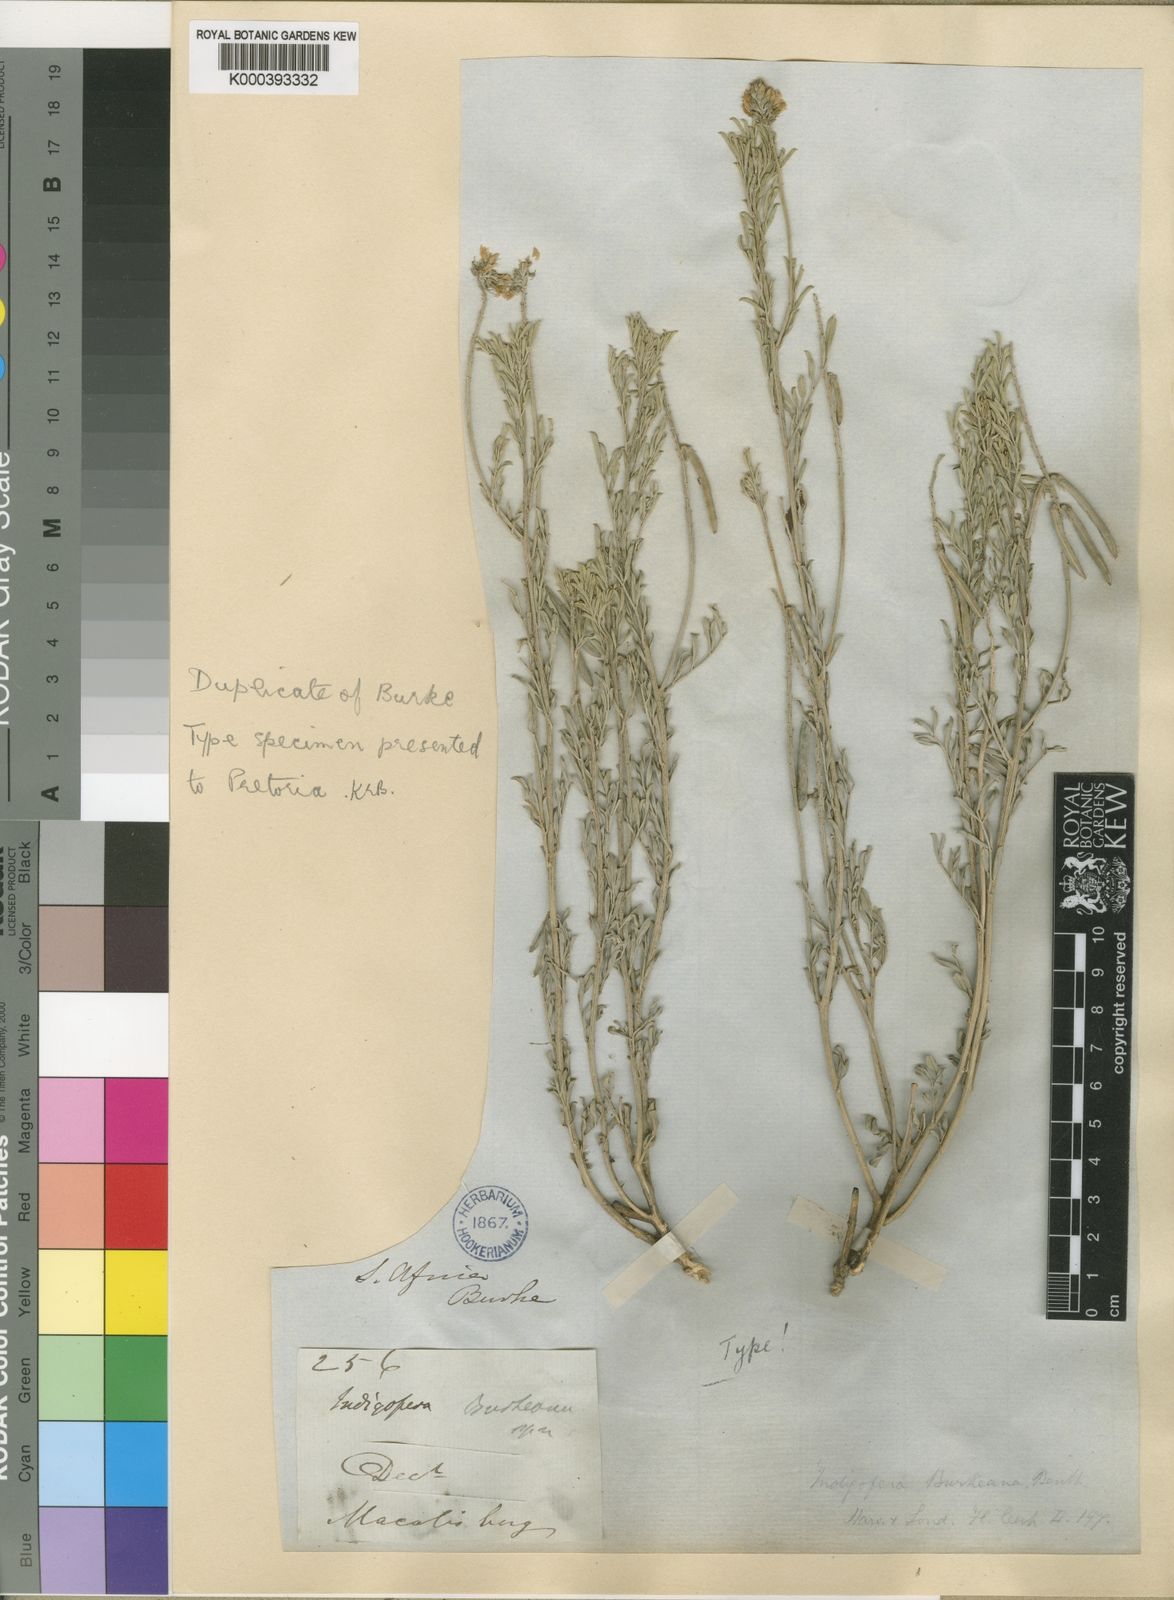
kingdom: Plantae
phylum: Tracheophyta
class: Magnoliopsida
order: Fabales
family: Fabaceae
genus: Indigastrum
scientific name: Indigastrum burkeanum
